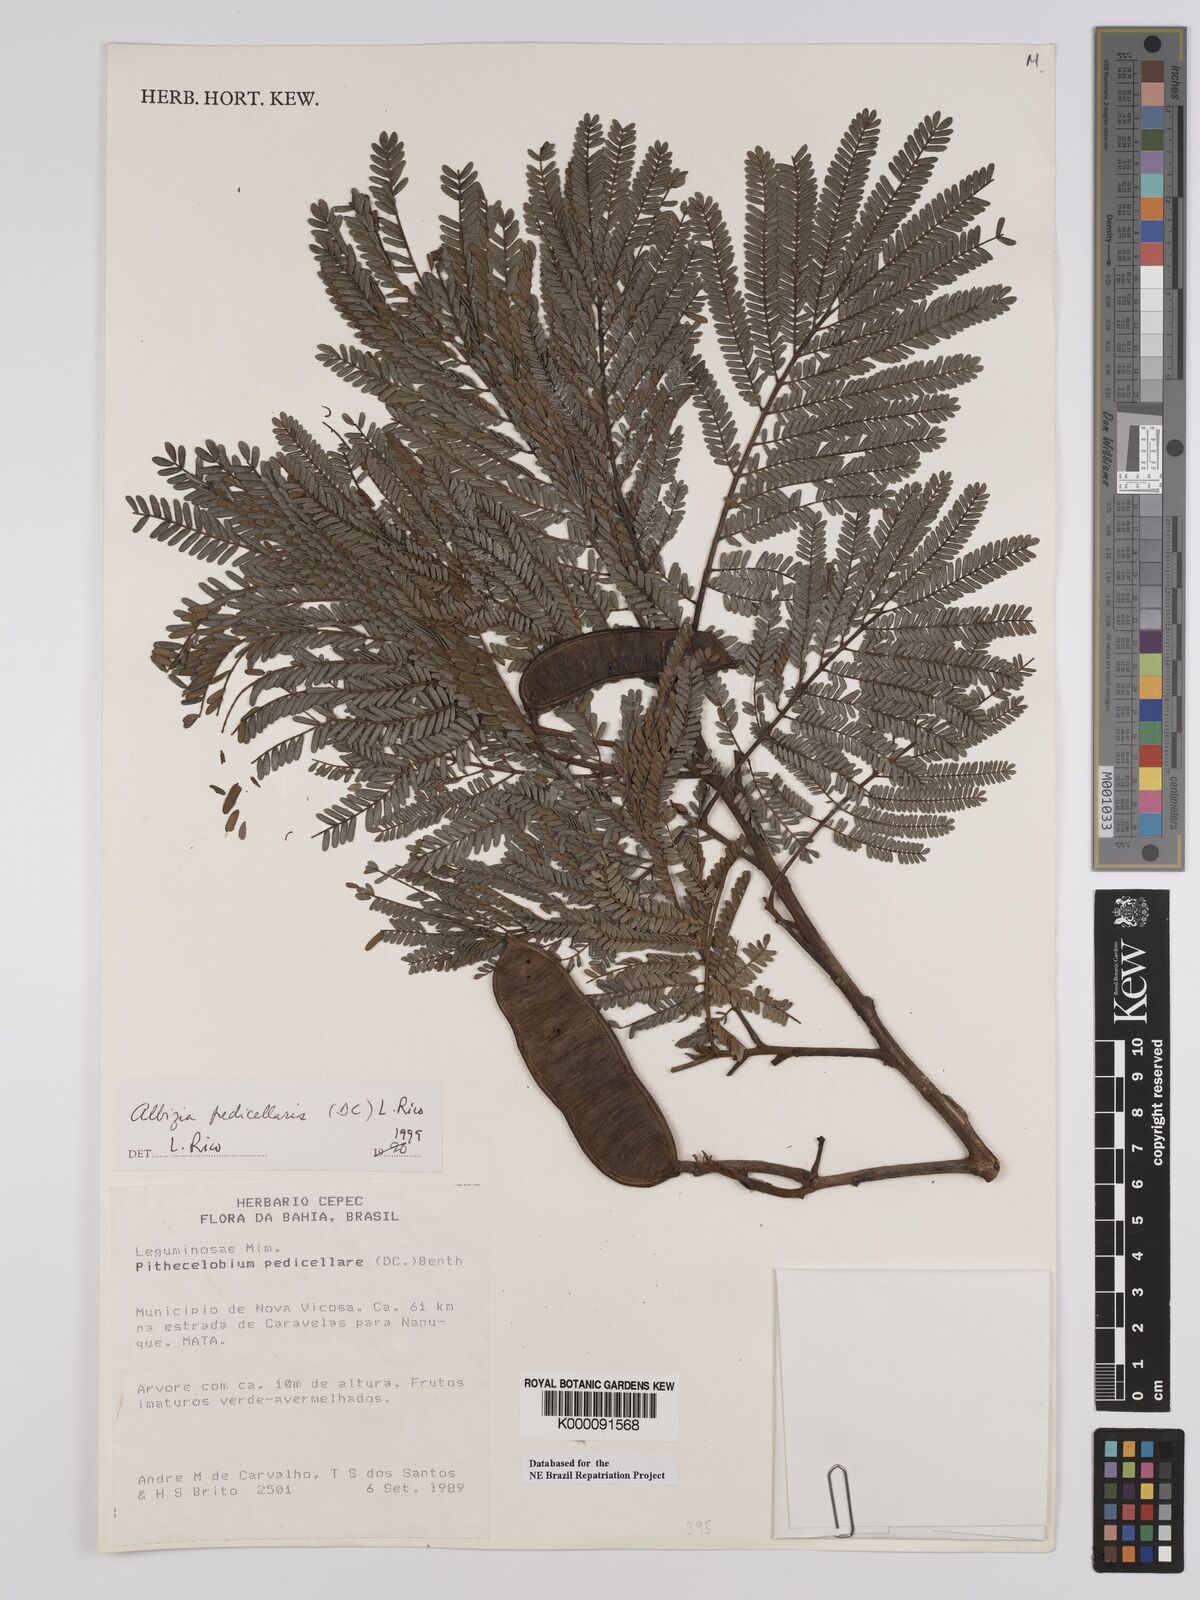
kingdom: Plantae
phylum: Tracheophyta
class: Magnoliopsida
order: Fabales
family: Fabaceae
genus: Balizia
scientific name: Balizia pedicellaris
